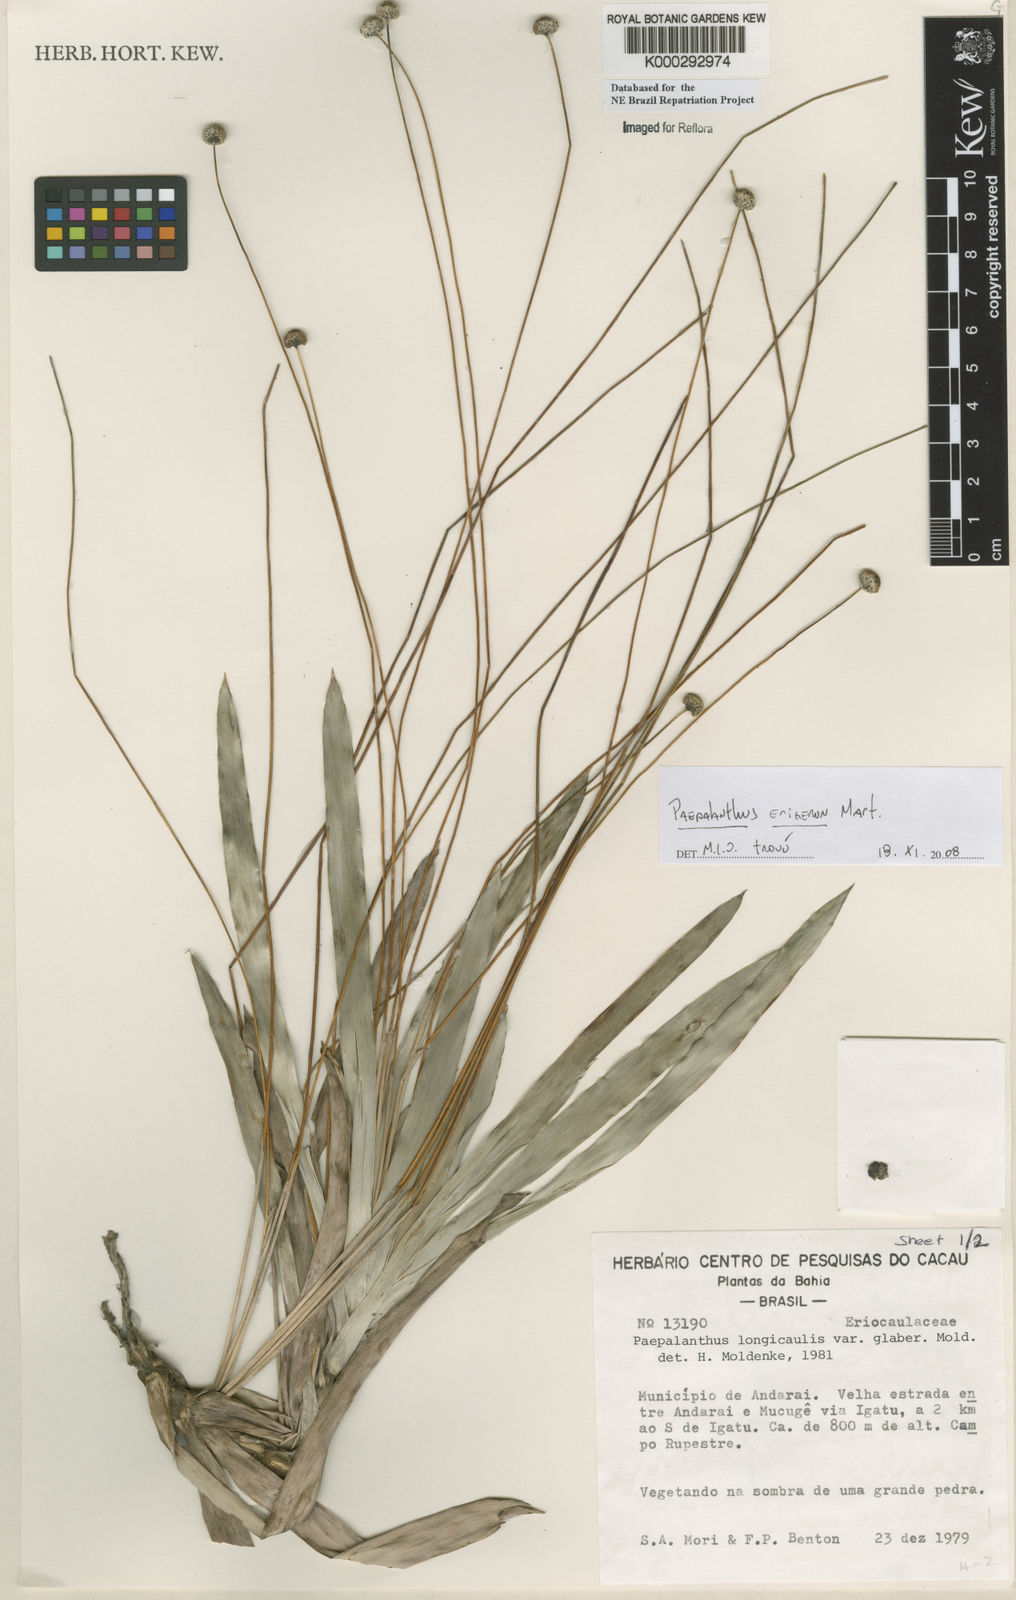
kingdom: Plantae
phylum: Tracheophyta
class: Liliopsida
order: Poales
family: Eriocaulaceae
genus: Paepalanthus
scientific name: Paepalanthus
